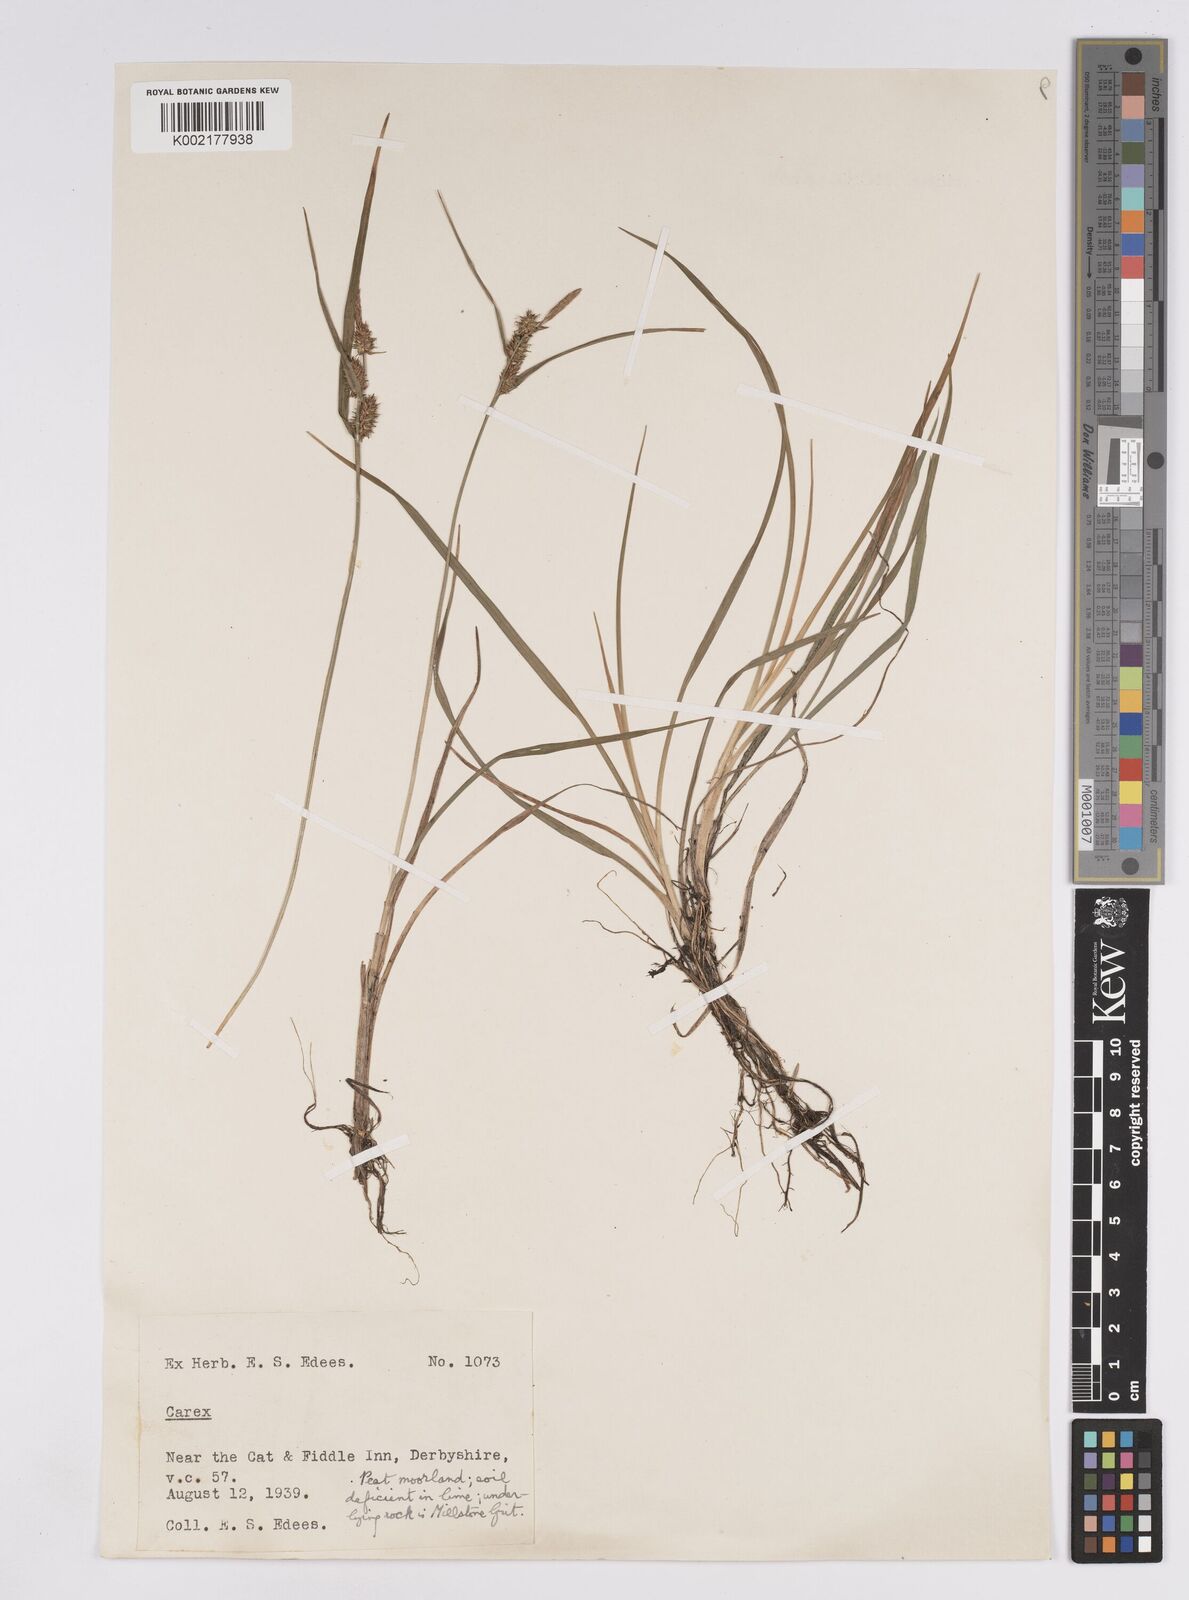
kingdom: Plantae
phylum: Tracheophyta
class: Liliopsida
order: Poales
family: Cyperaceae
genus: Carex
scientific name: Carex demissa
